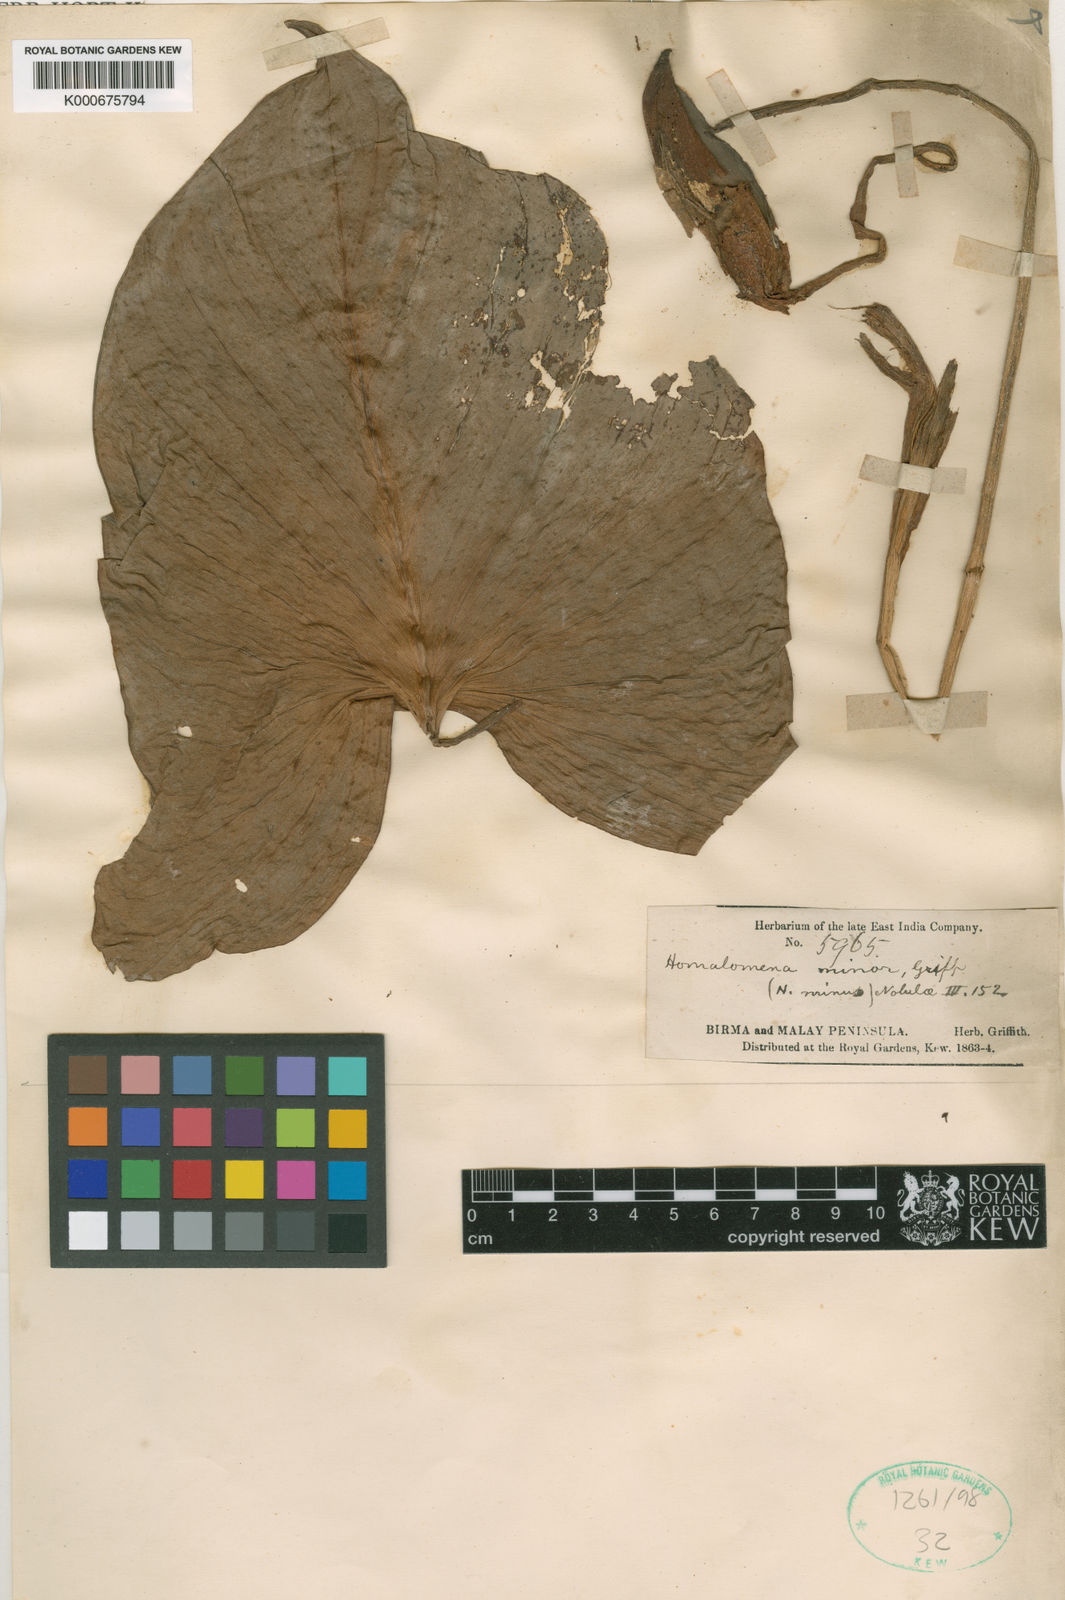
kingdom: Plantae
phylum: Tracheophyta
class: Liliopsida
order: Alismatales
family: Araceae
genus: Homalomena
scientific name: Homalomena minor
